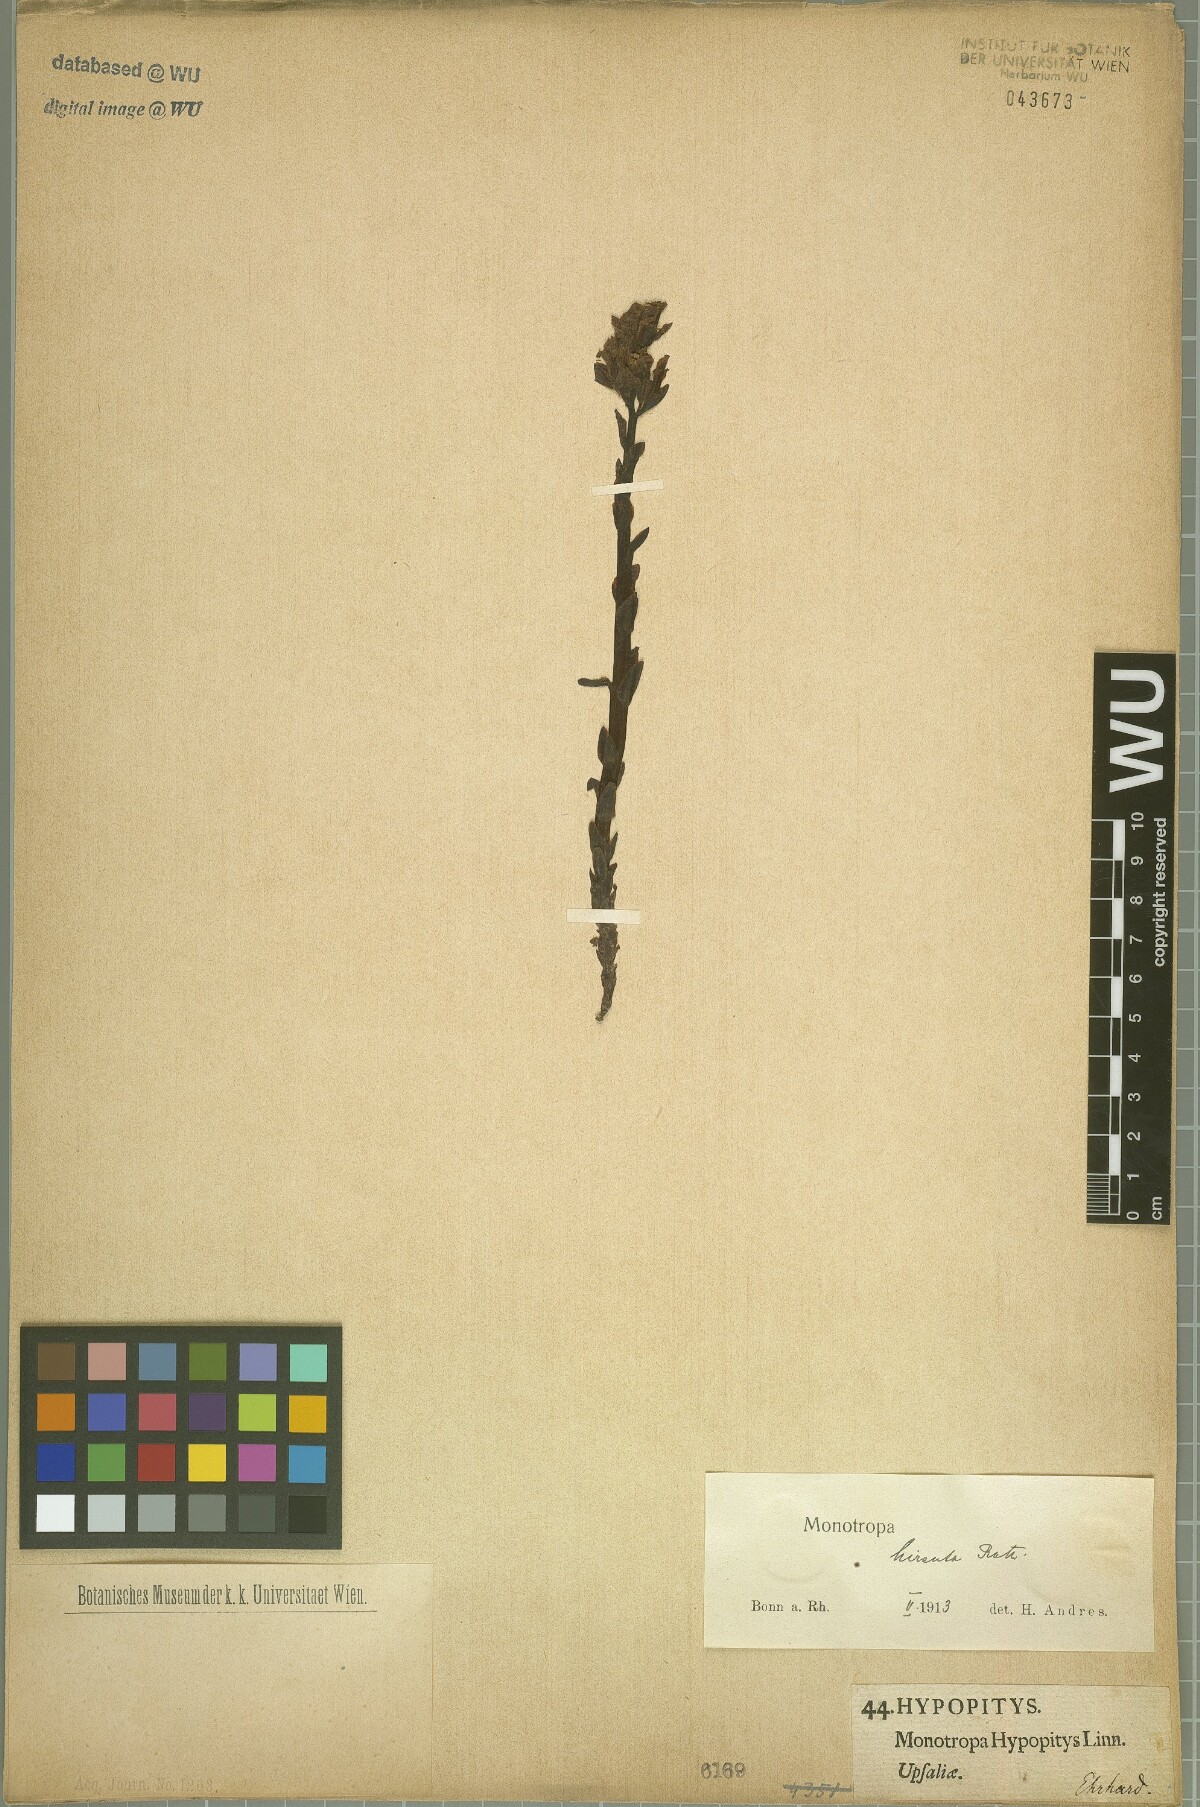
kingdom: Plantae
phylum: Tracheophyta
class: Magnoliopsida
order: Ericales
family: Ericaceae
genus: Hypopitys
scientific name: Hypopitys monotropa
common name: Yellow bird's-nest
